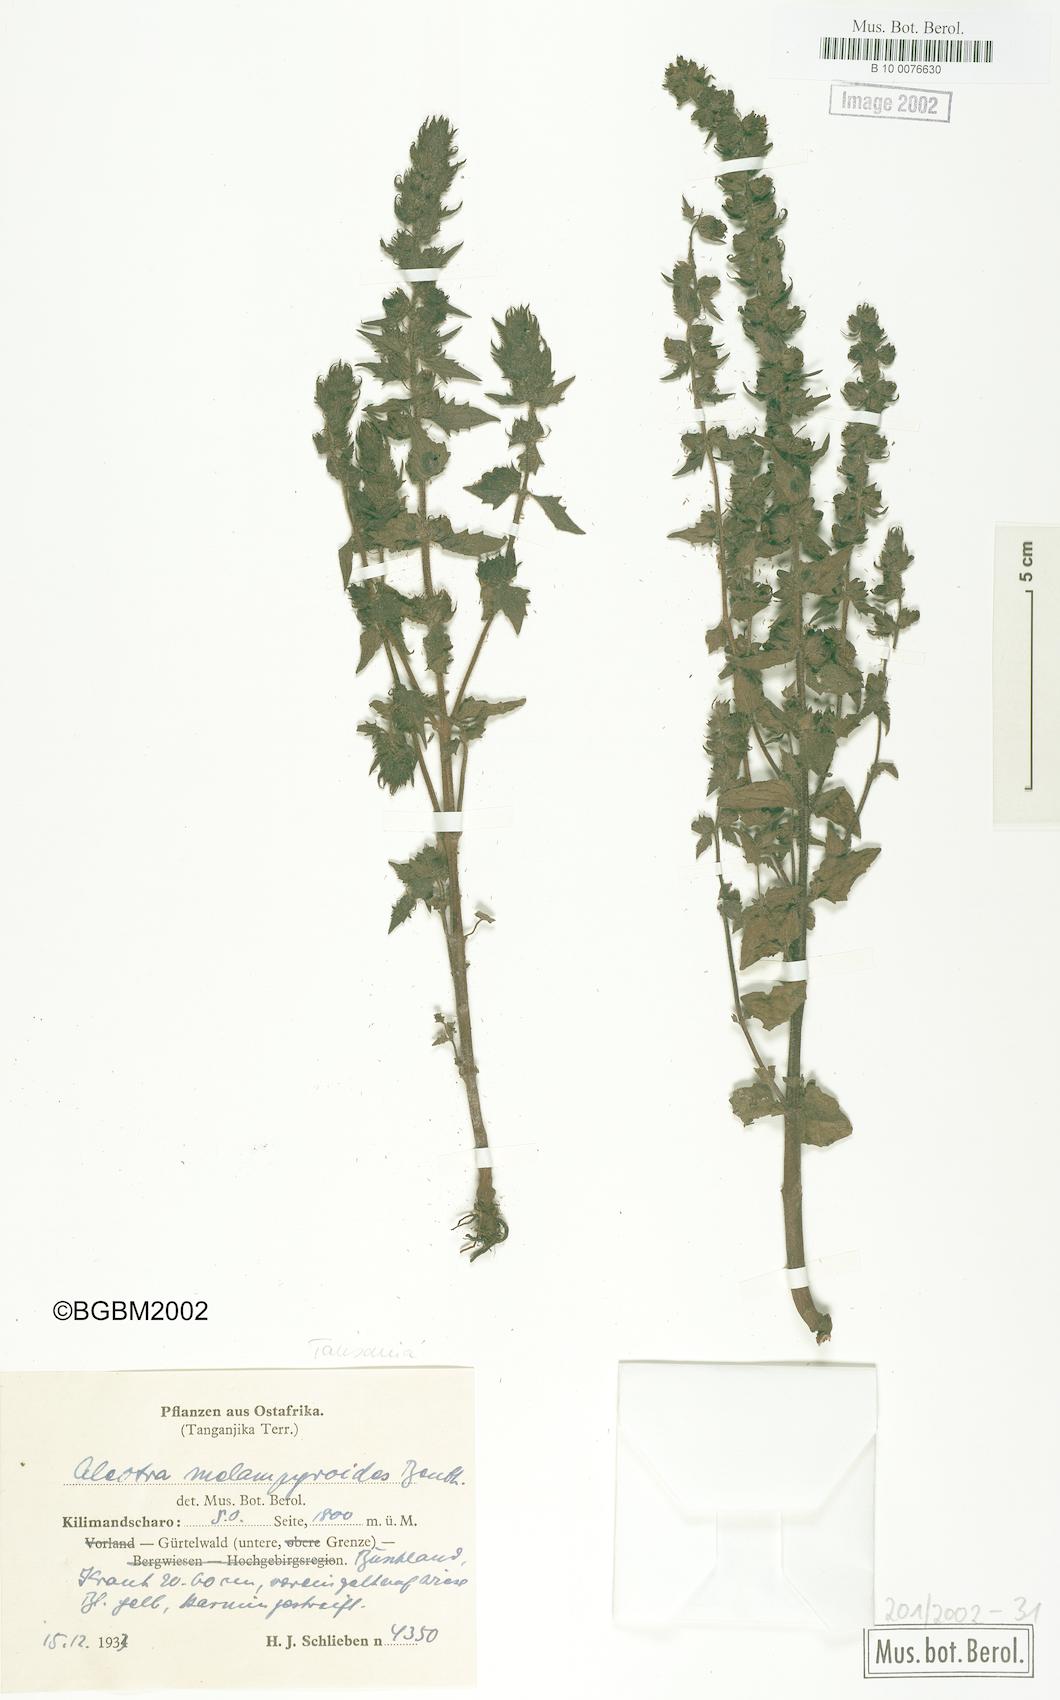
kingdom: Plantae
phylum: Tracheophyta
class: Magnoliopsida
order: Lamiales
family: Orobanchaceae
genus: Alectra
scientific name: Alectra sessiliflora
